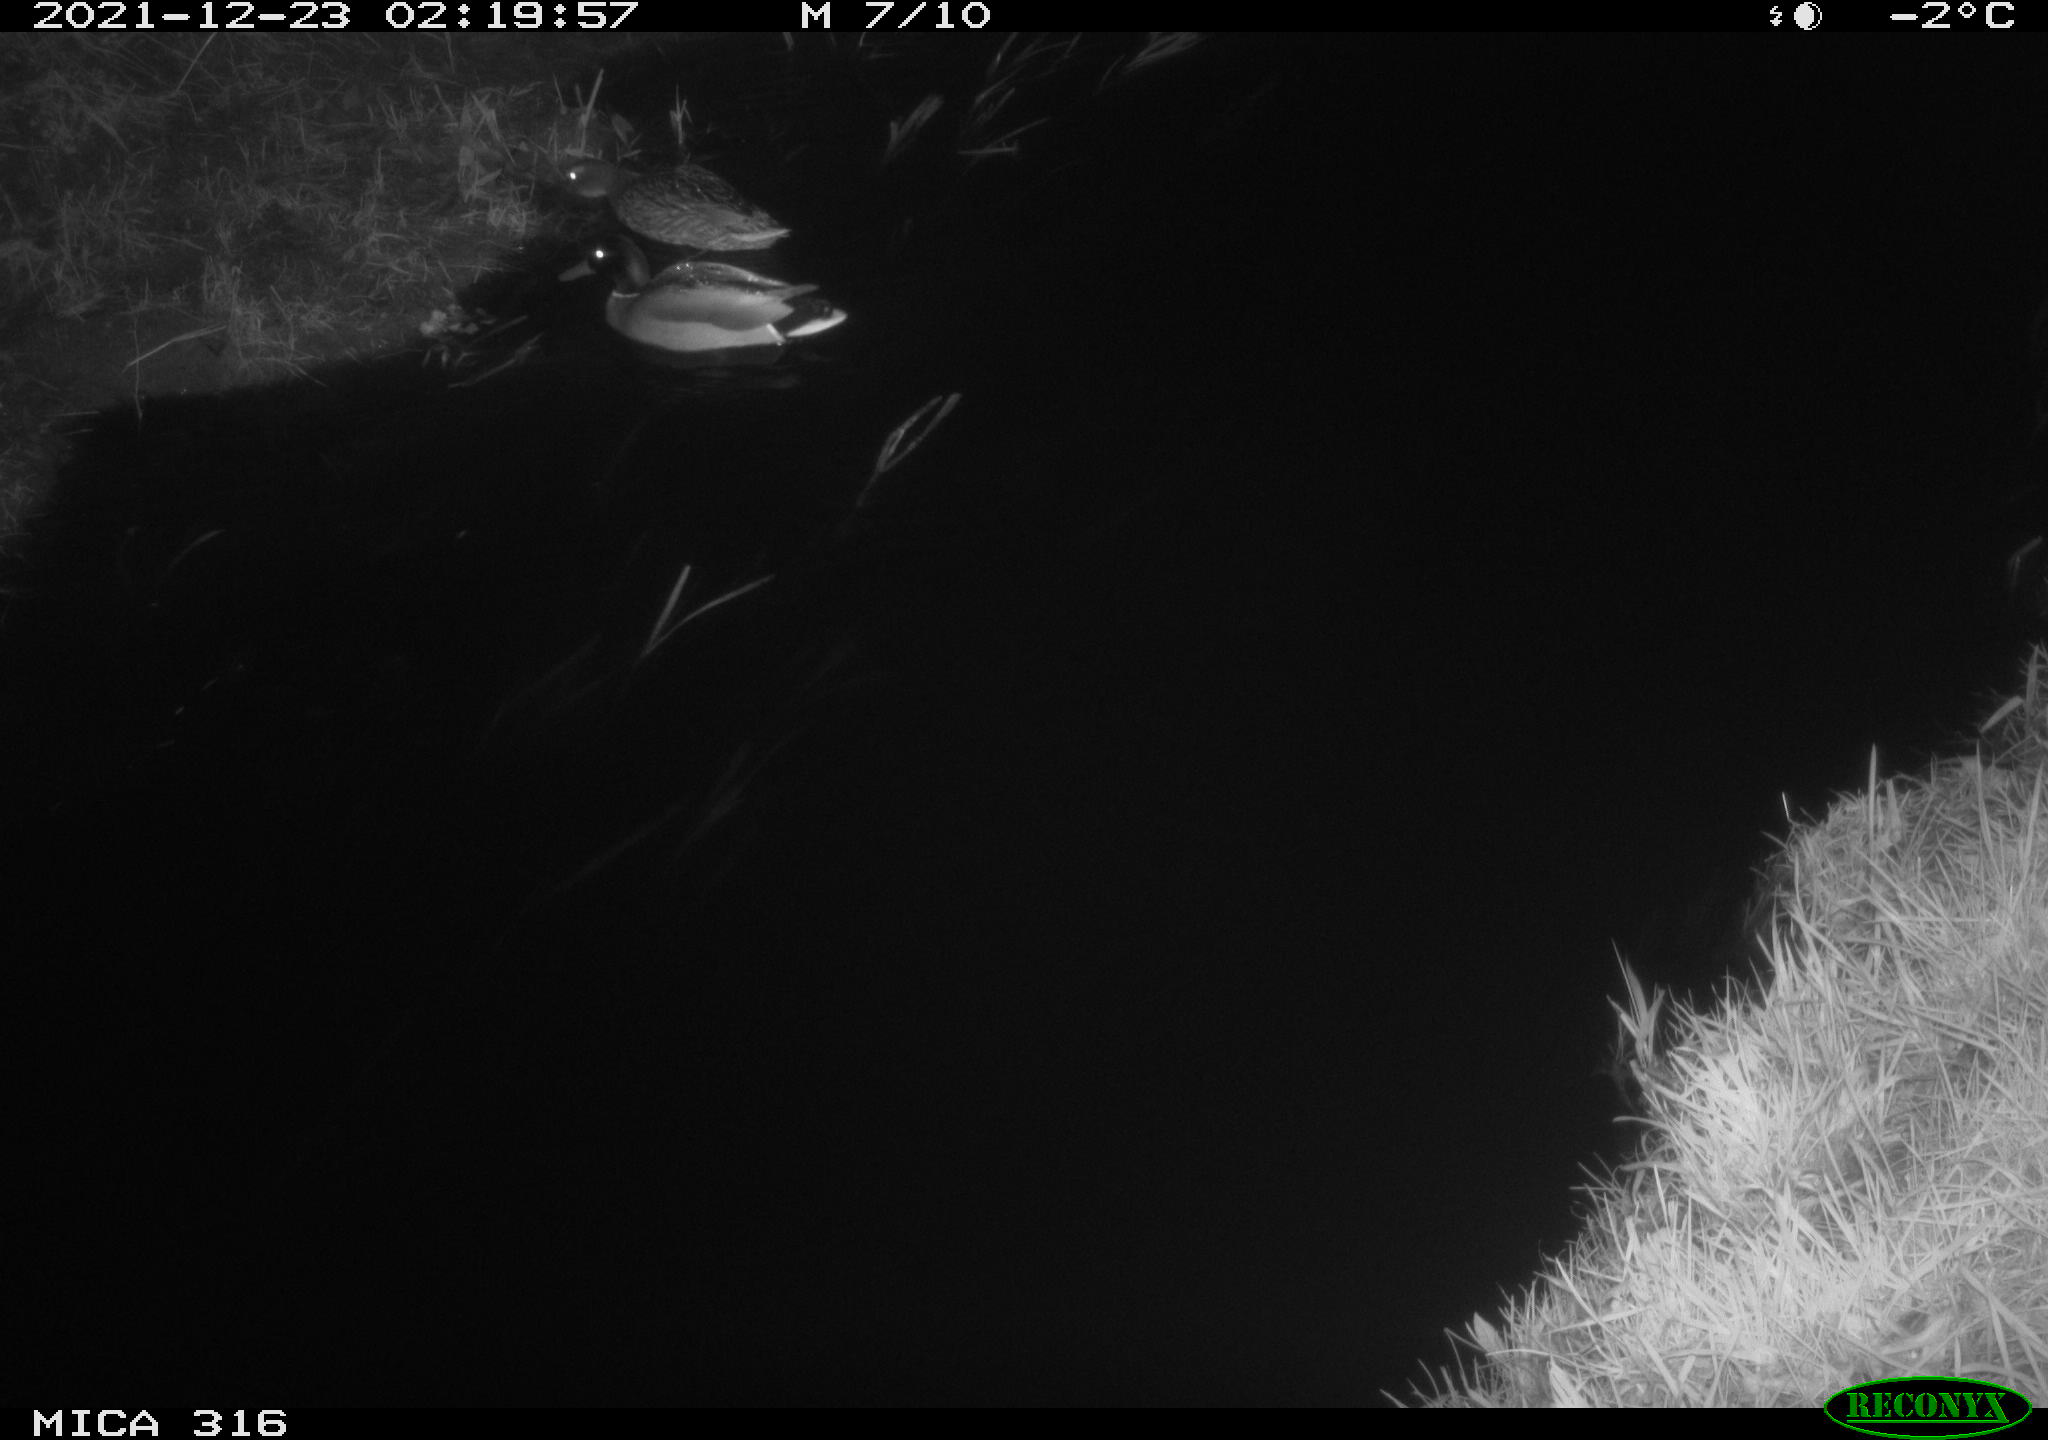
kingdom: Animalia
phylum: Chordata
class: Aves
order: Anseriformes
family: Anatidae
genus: Anas
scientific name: Anas
